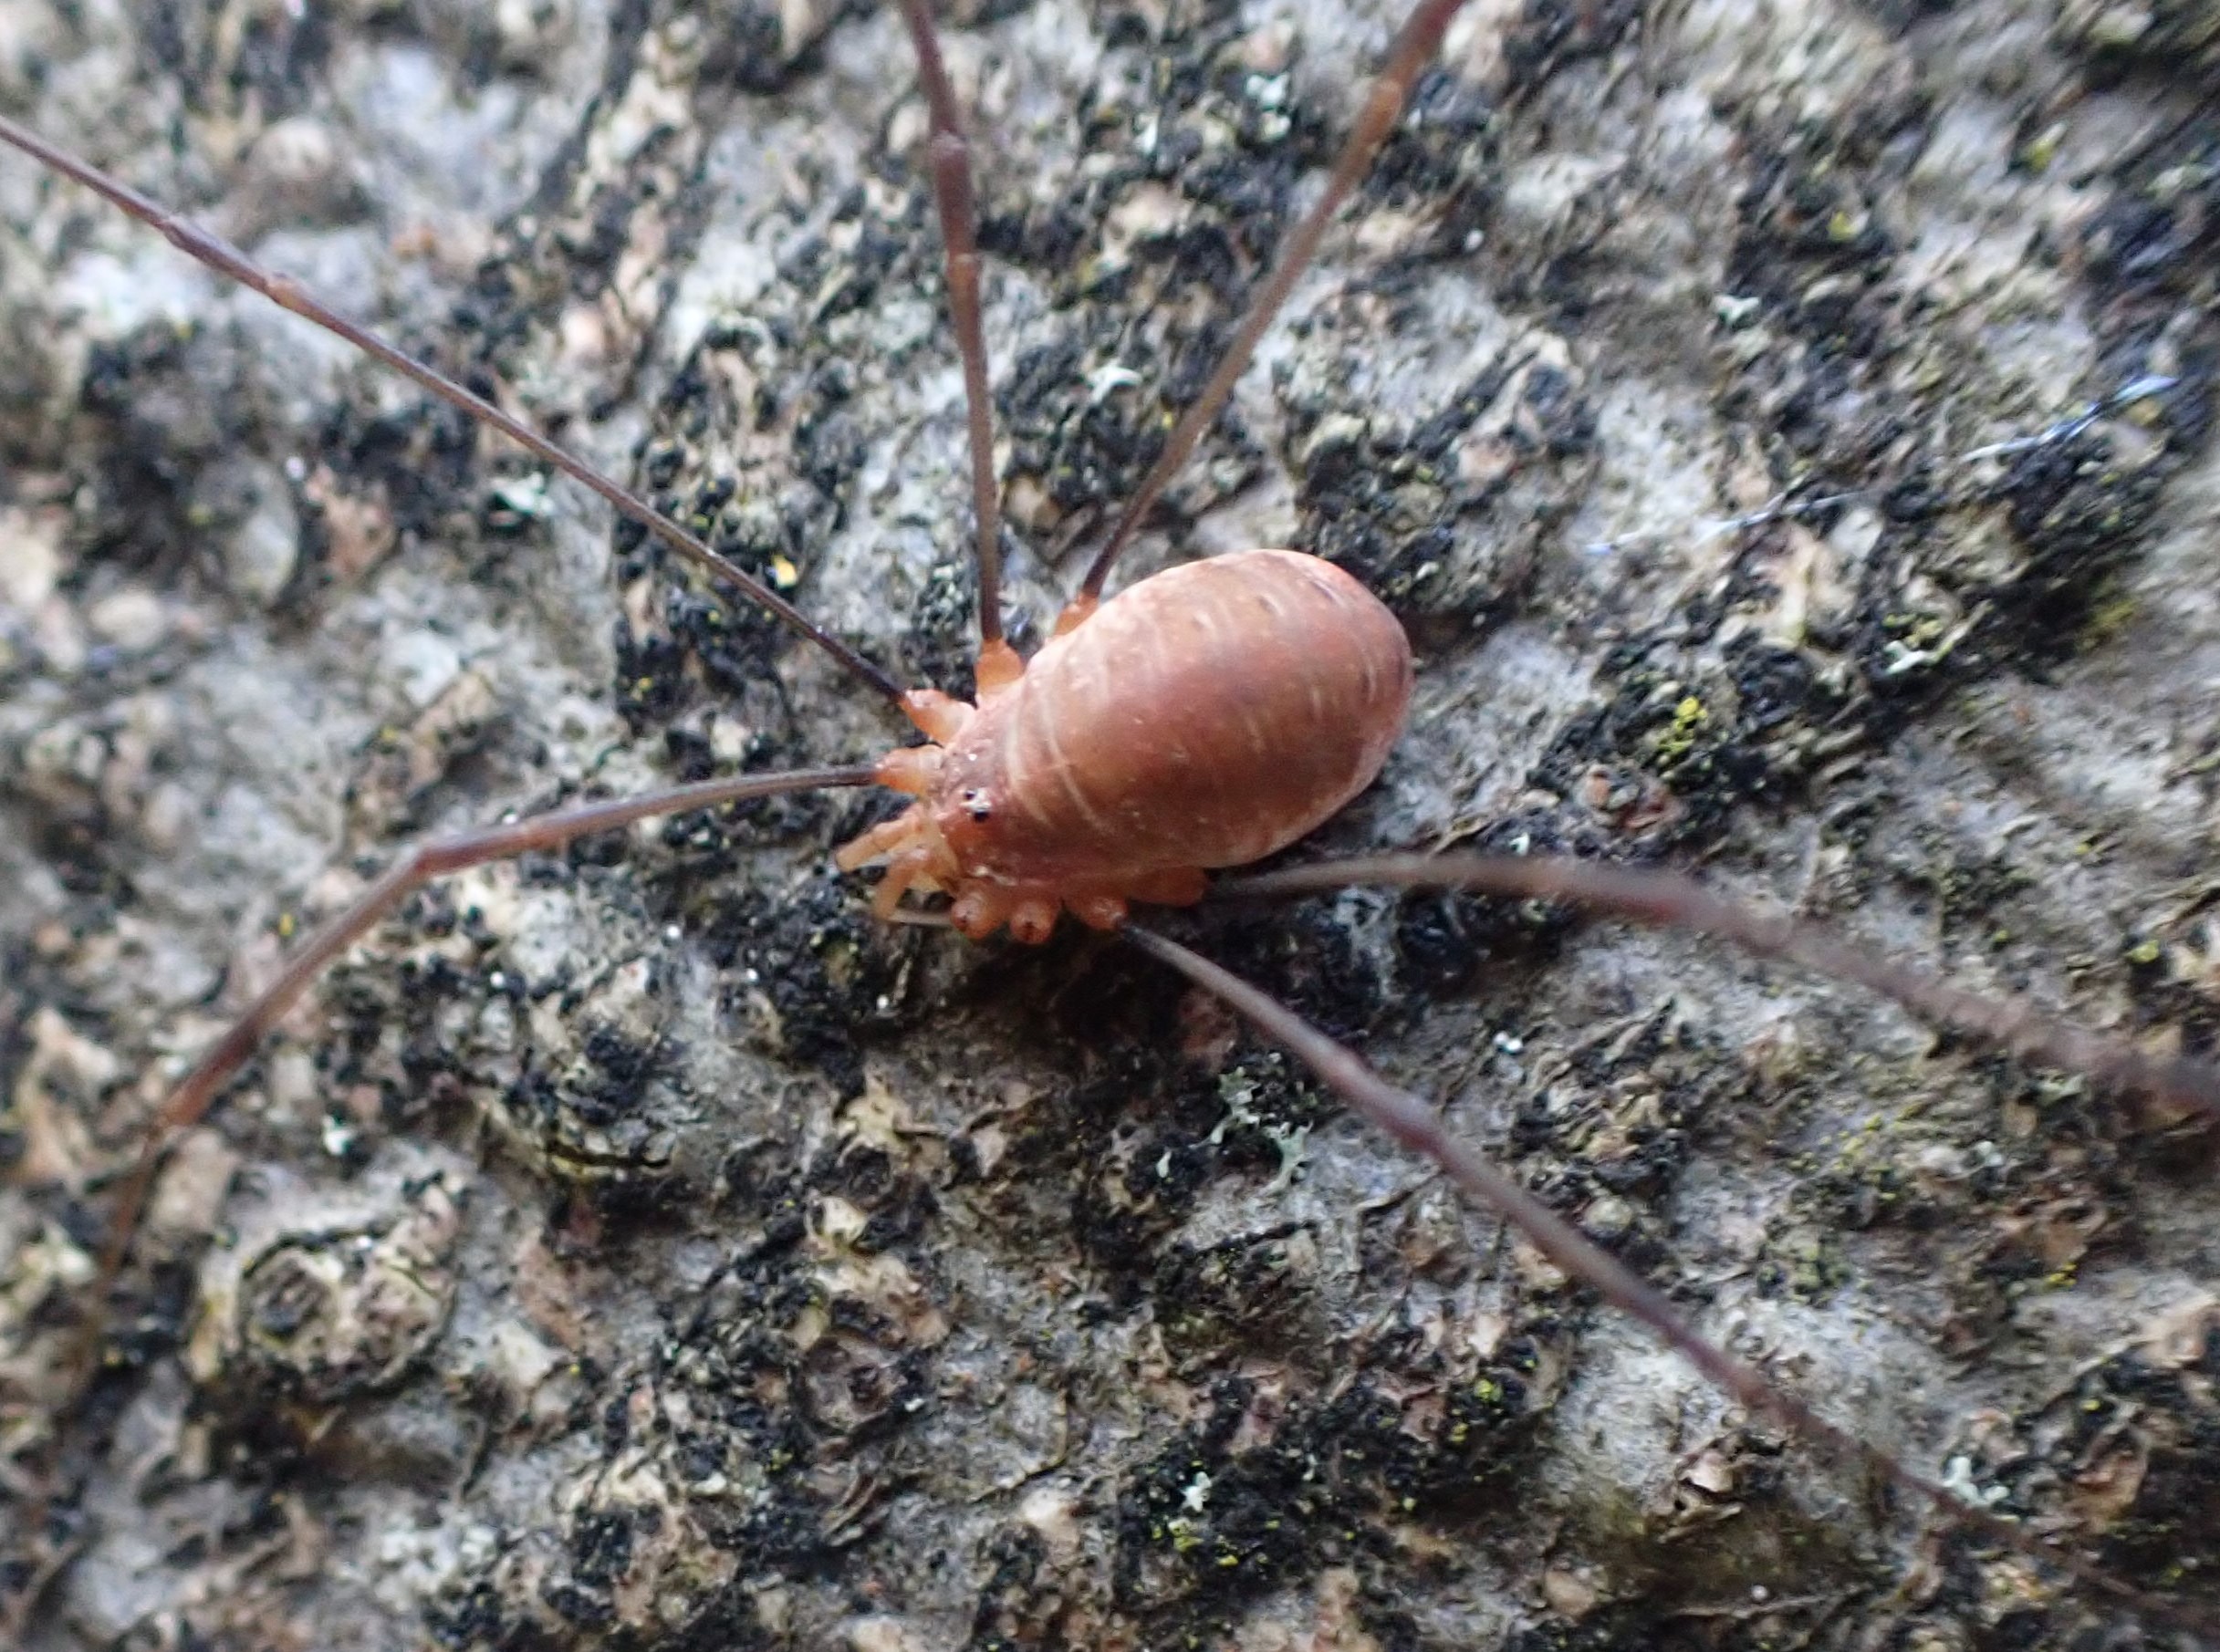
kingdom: Animalia
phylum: Arthropoda
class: Arachnida
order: Opiliones
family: Phalangiidae
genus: Opilio
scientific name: Opilio canestrinii
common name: Orange vægmejer
